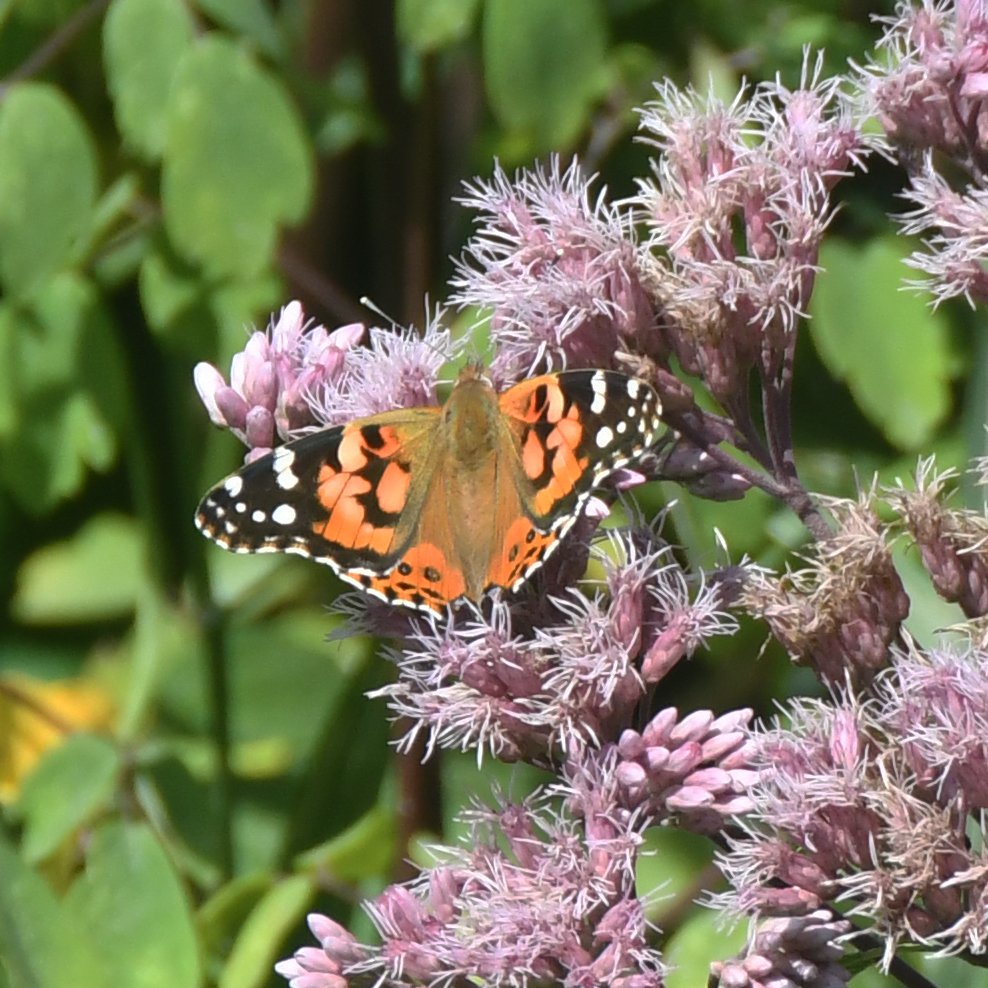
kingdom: Animalia
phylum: Arthropoda
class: Insecta
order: Lepidoptera
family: Nymphalidae
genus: Vanessa
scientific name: Vanessa cardui
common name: Painted Lady
